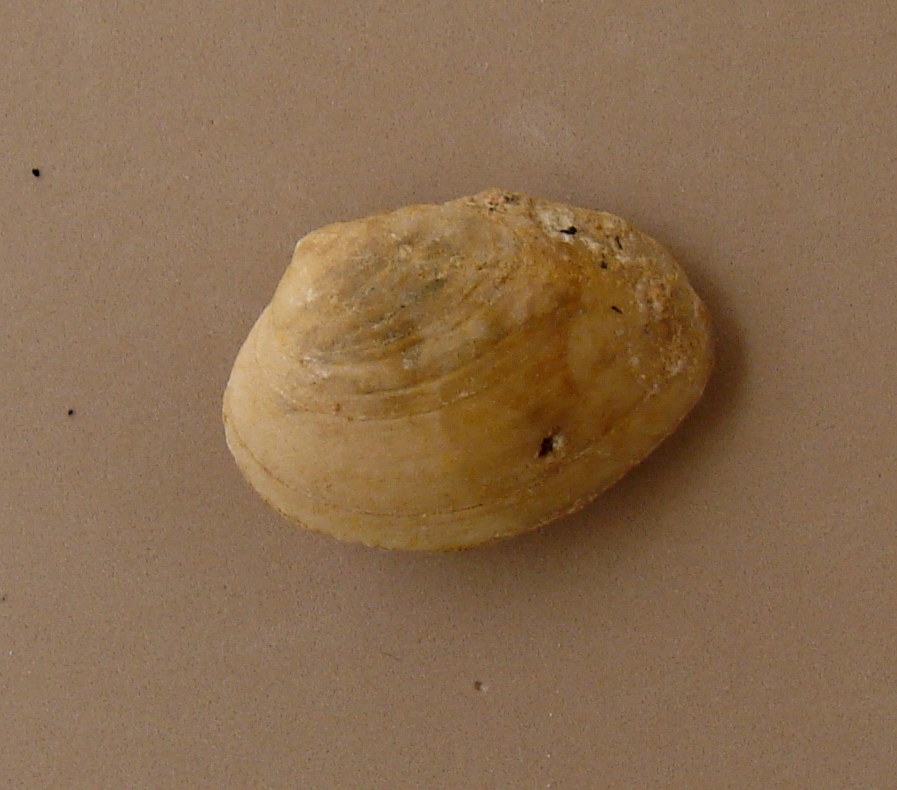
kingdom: Animalia
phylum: Mollusca
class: Bivalvia
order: Carditida
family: Cardiniidae
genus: Cardinia
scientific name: Cardinia
